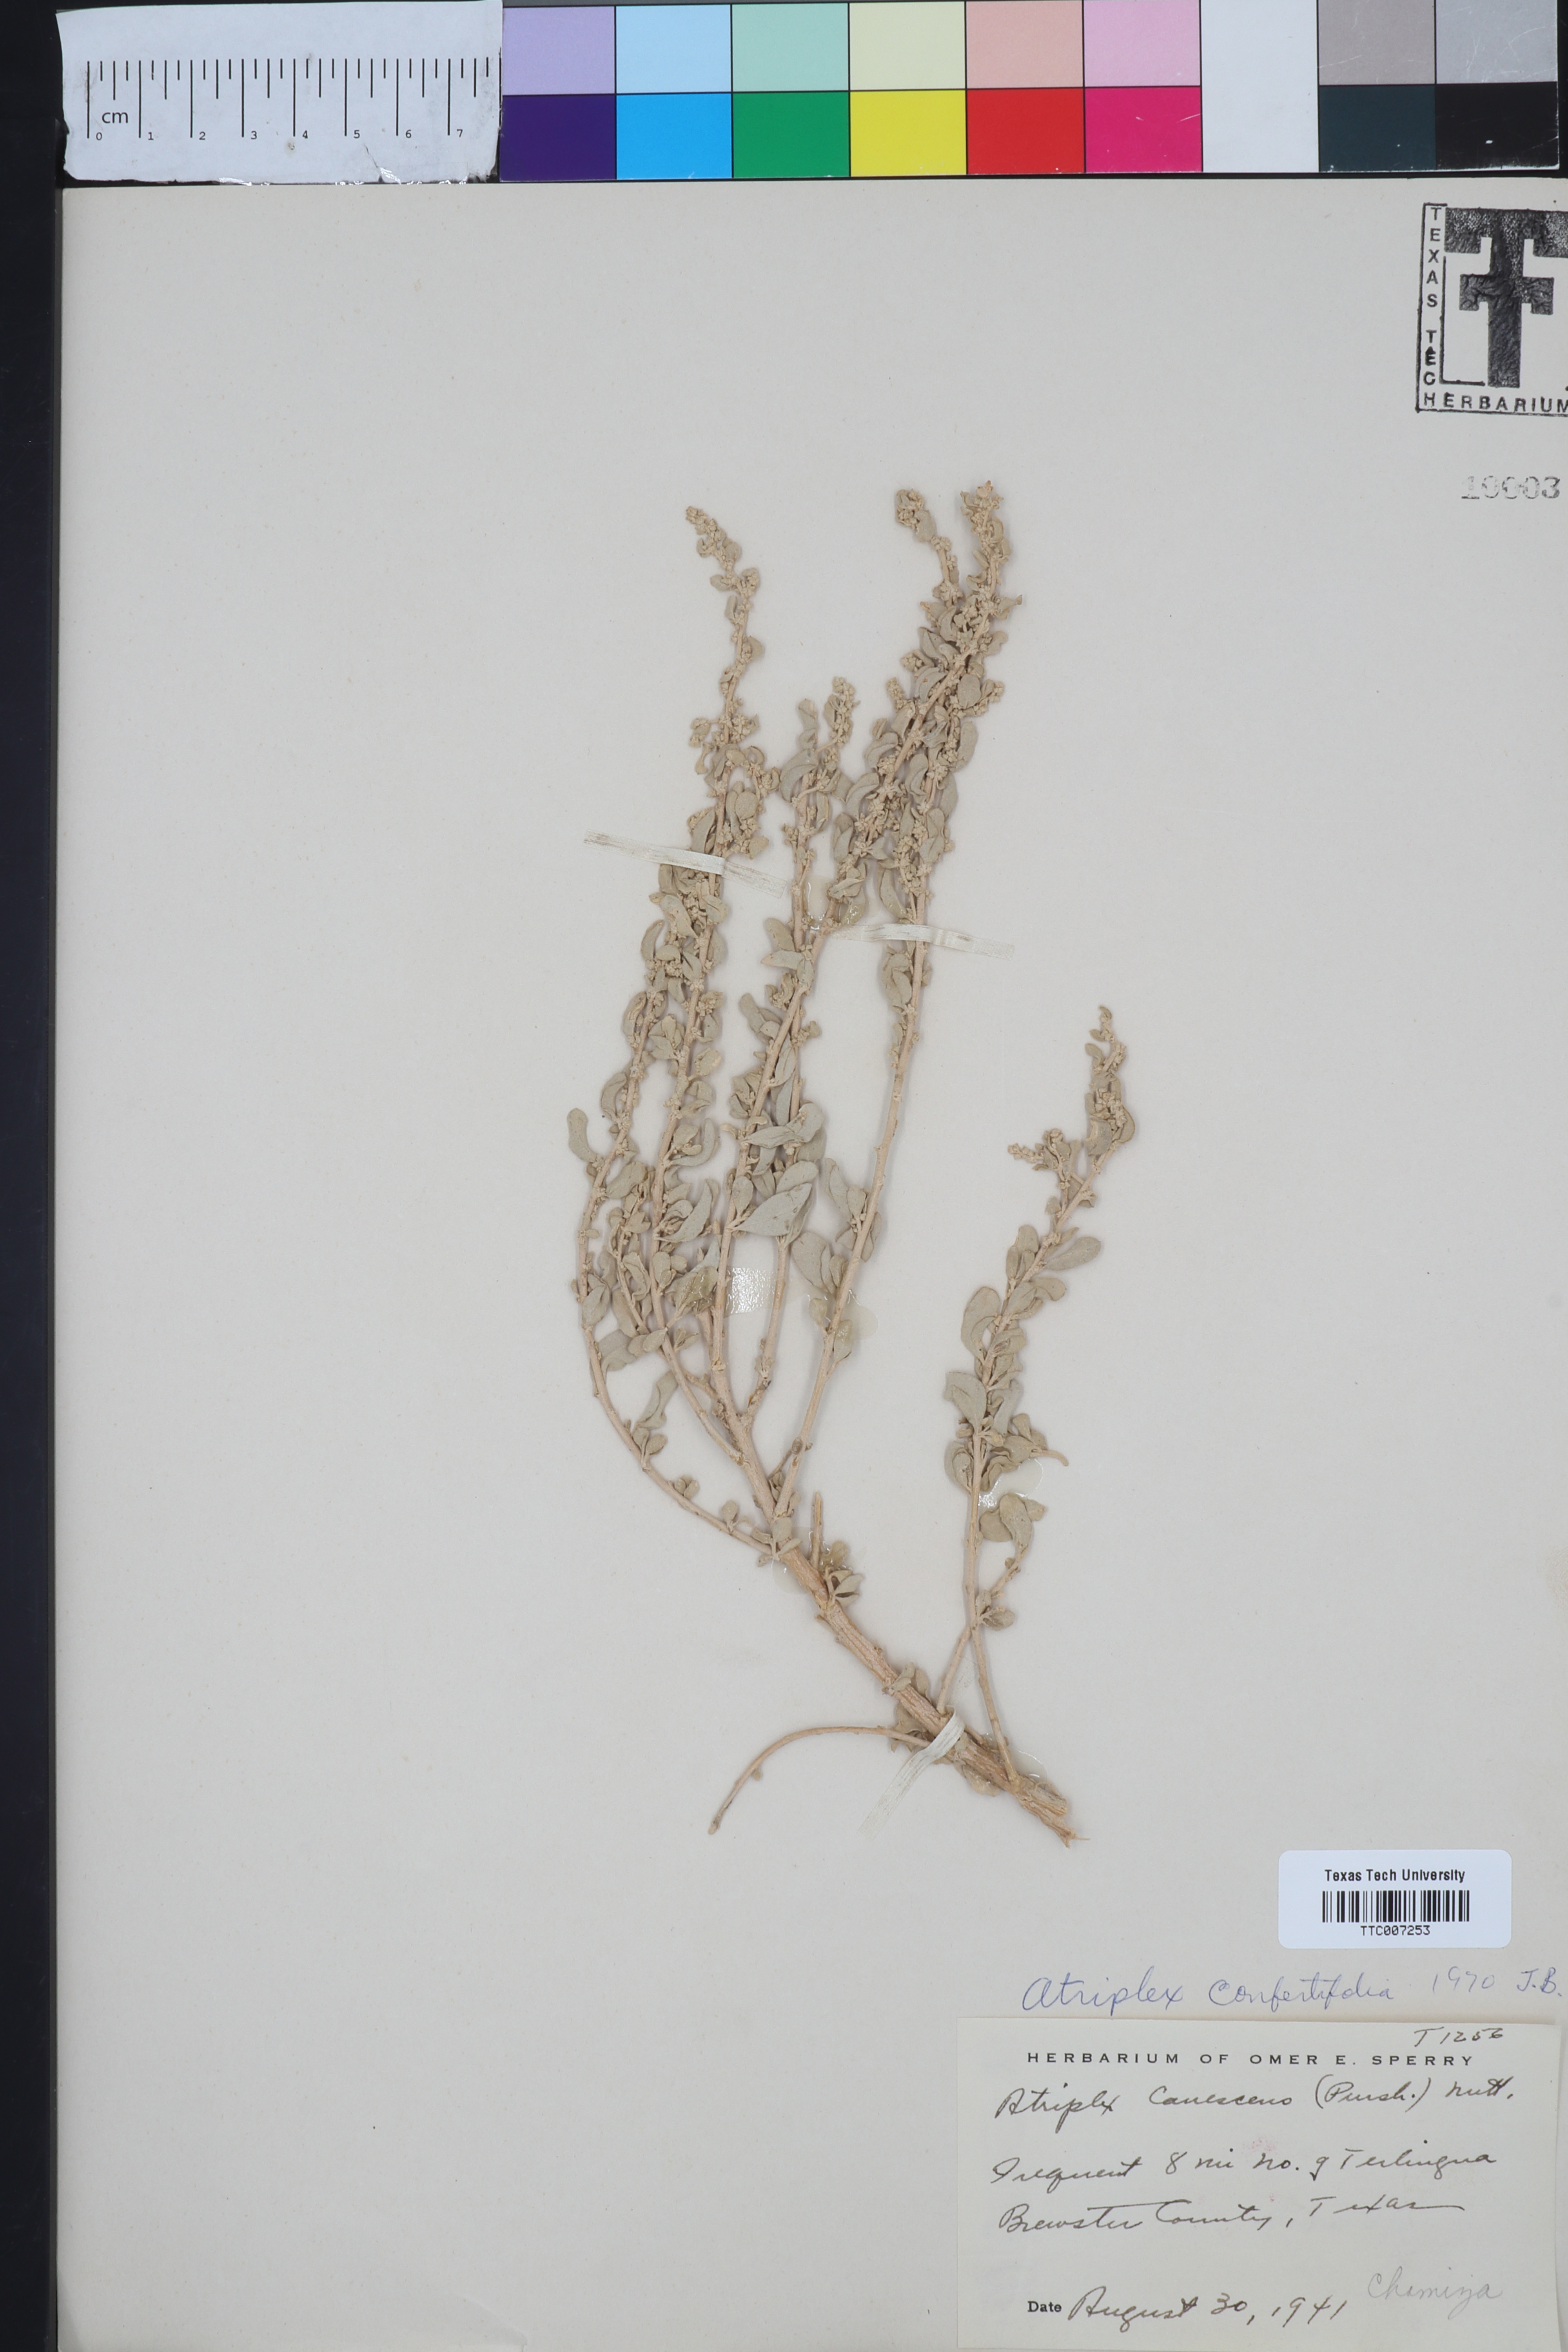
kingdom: Plantae
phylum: Tracheophyta
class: Magnoliopsida
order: Caryophyllales
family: Amaranthaceae
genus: Atriplex
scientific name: Atriplex confertifolia
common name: Shadscale
